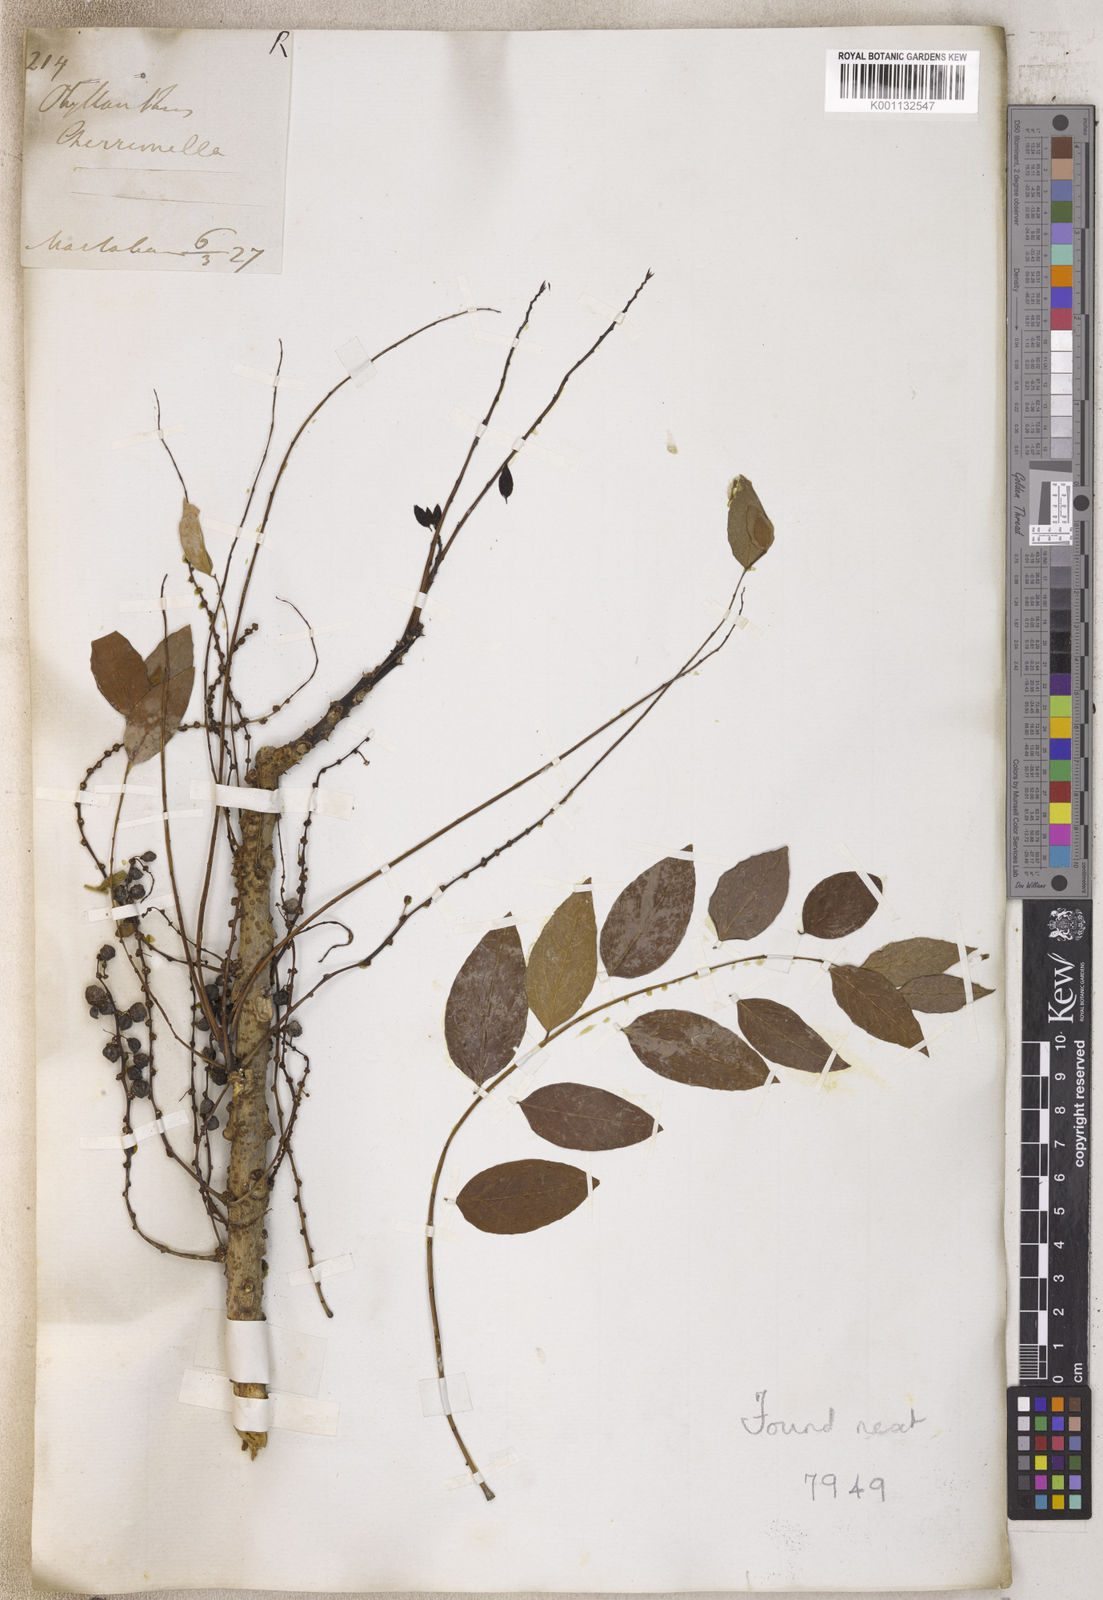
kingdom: Plantae
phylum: Tracheophyta
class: Magnoliopsida
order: Malpighiales
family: Phyllanthaceae
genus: Phyllanthus
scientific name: Phyllanthus
